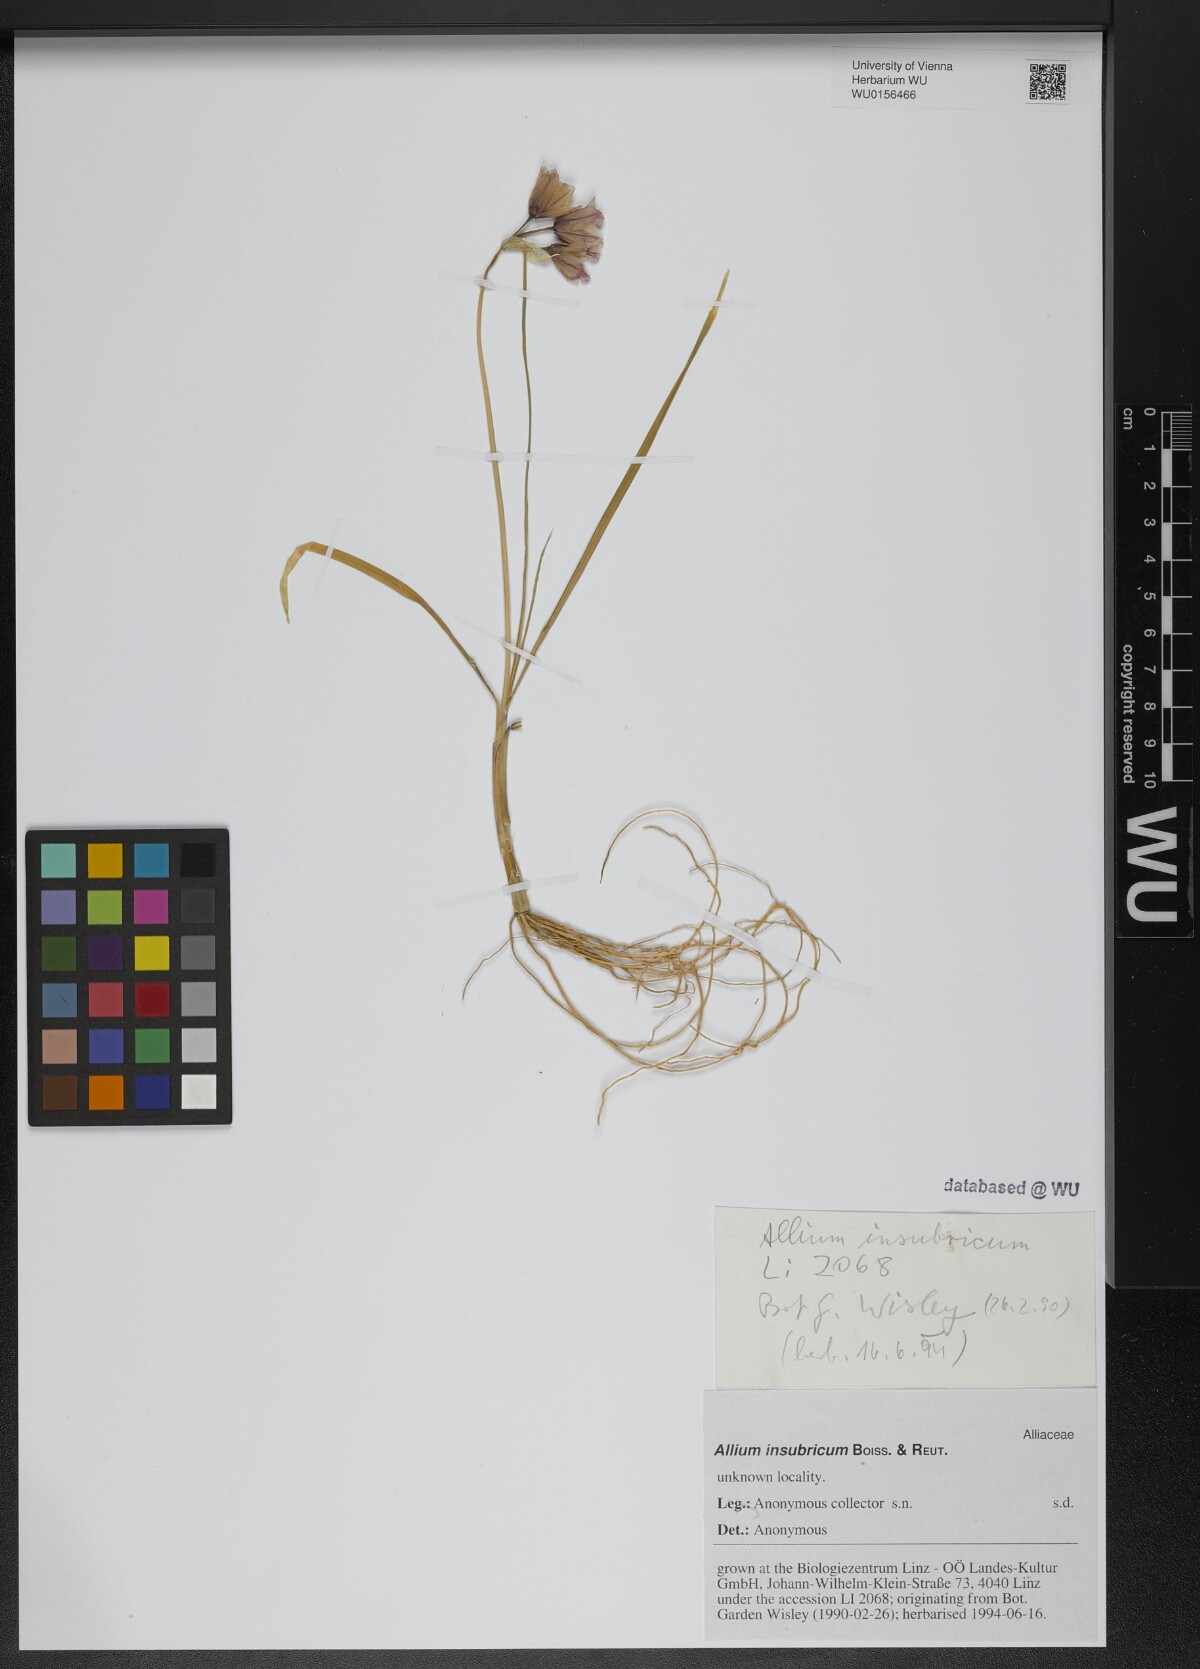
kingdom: Plantae
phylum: Tracheophyta
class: Liliopsida
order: Asparagales
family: Amaryllidaceae
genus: Allium
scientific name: Allium insubricum
